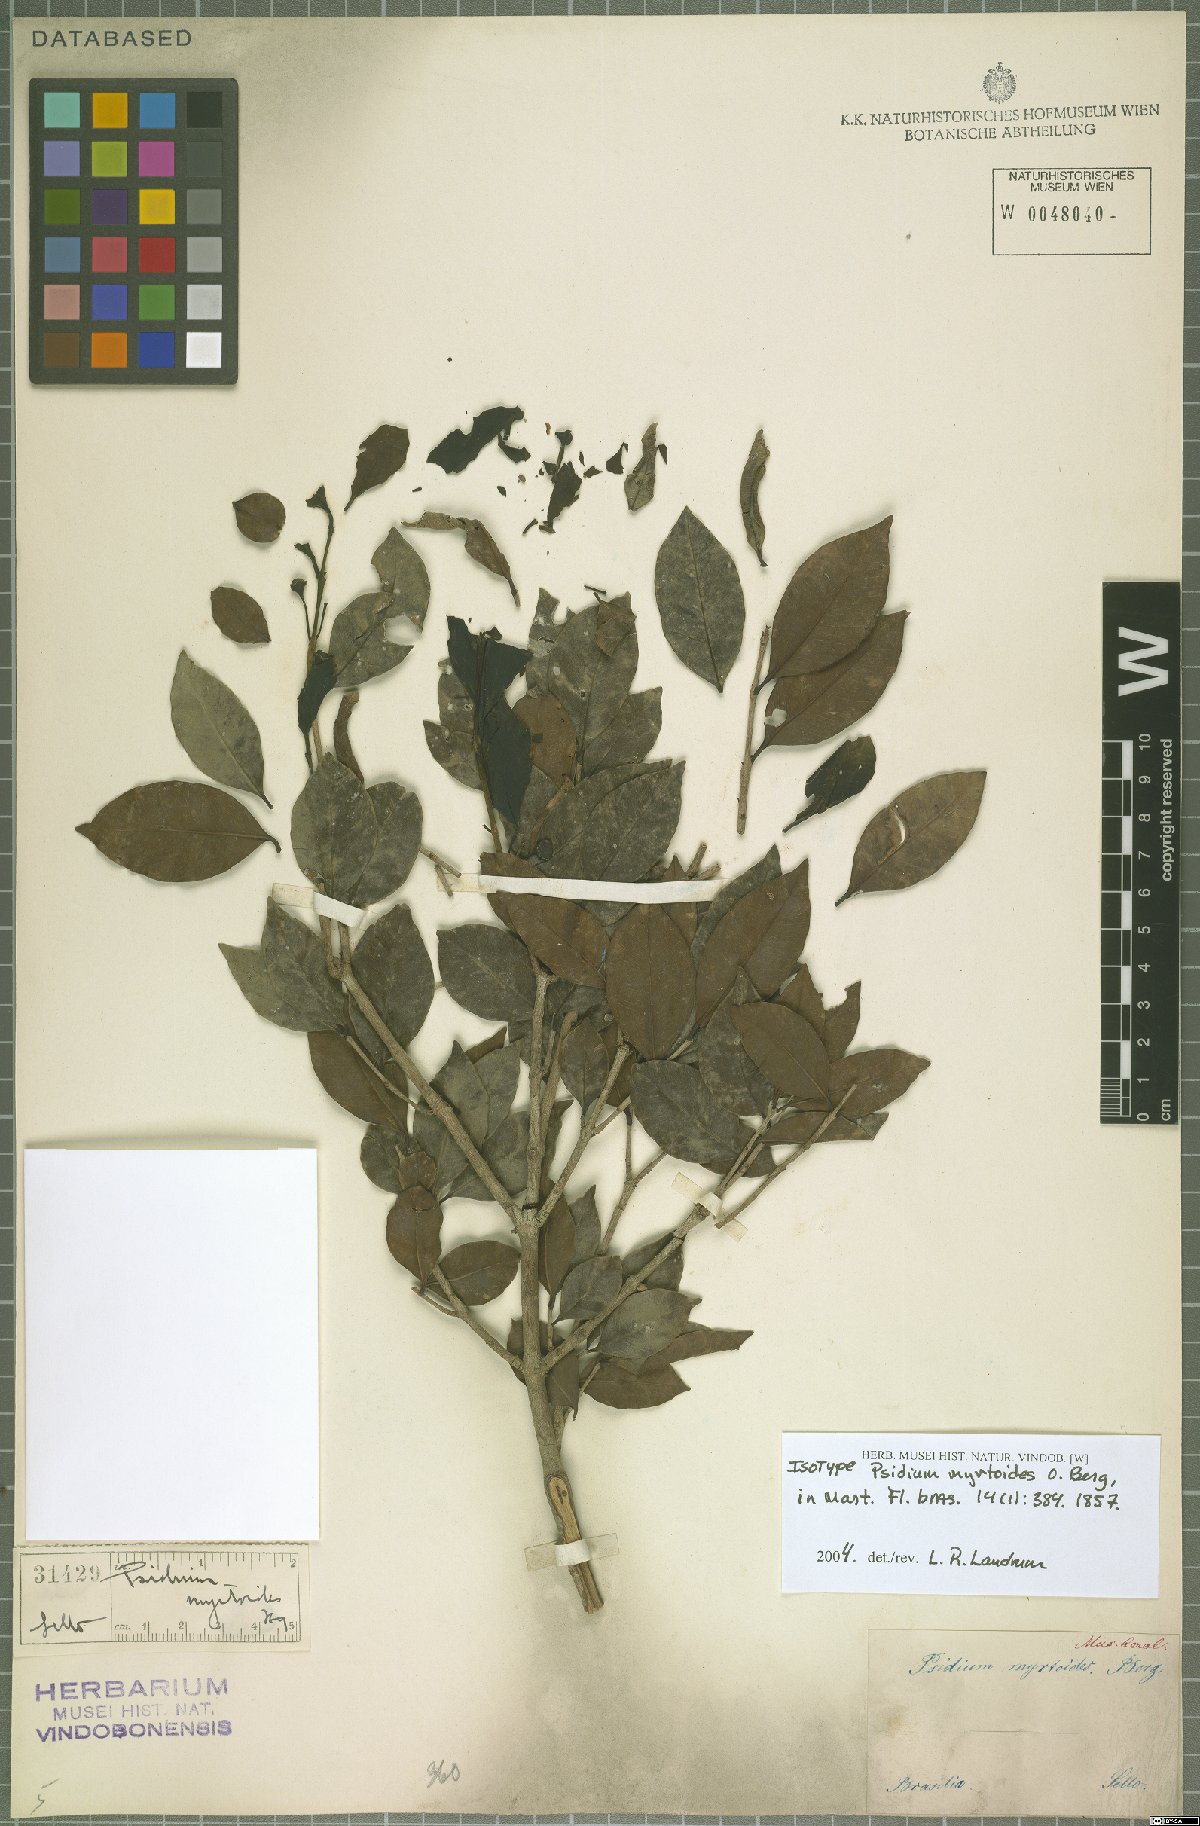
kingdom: Plantae
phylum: Tracheophyta
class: Magnoliopsida
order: Myrtales
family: Myrtaceae
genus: Psidium
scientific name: Psidium myrtoides
